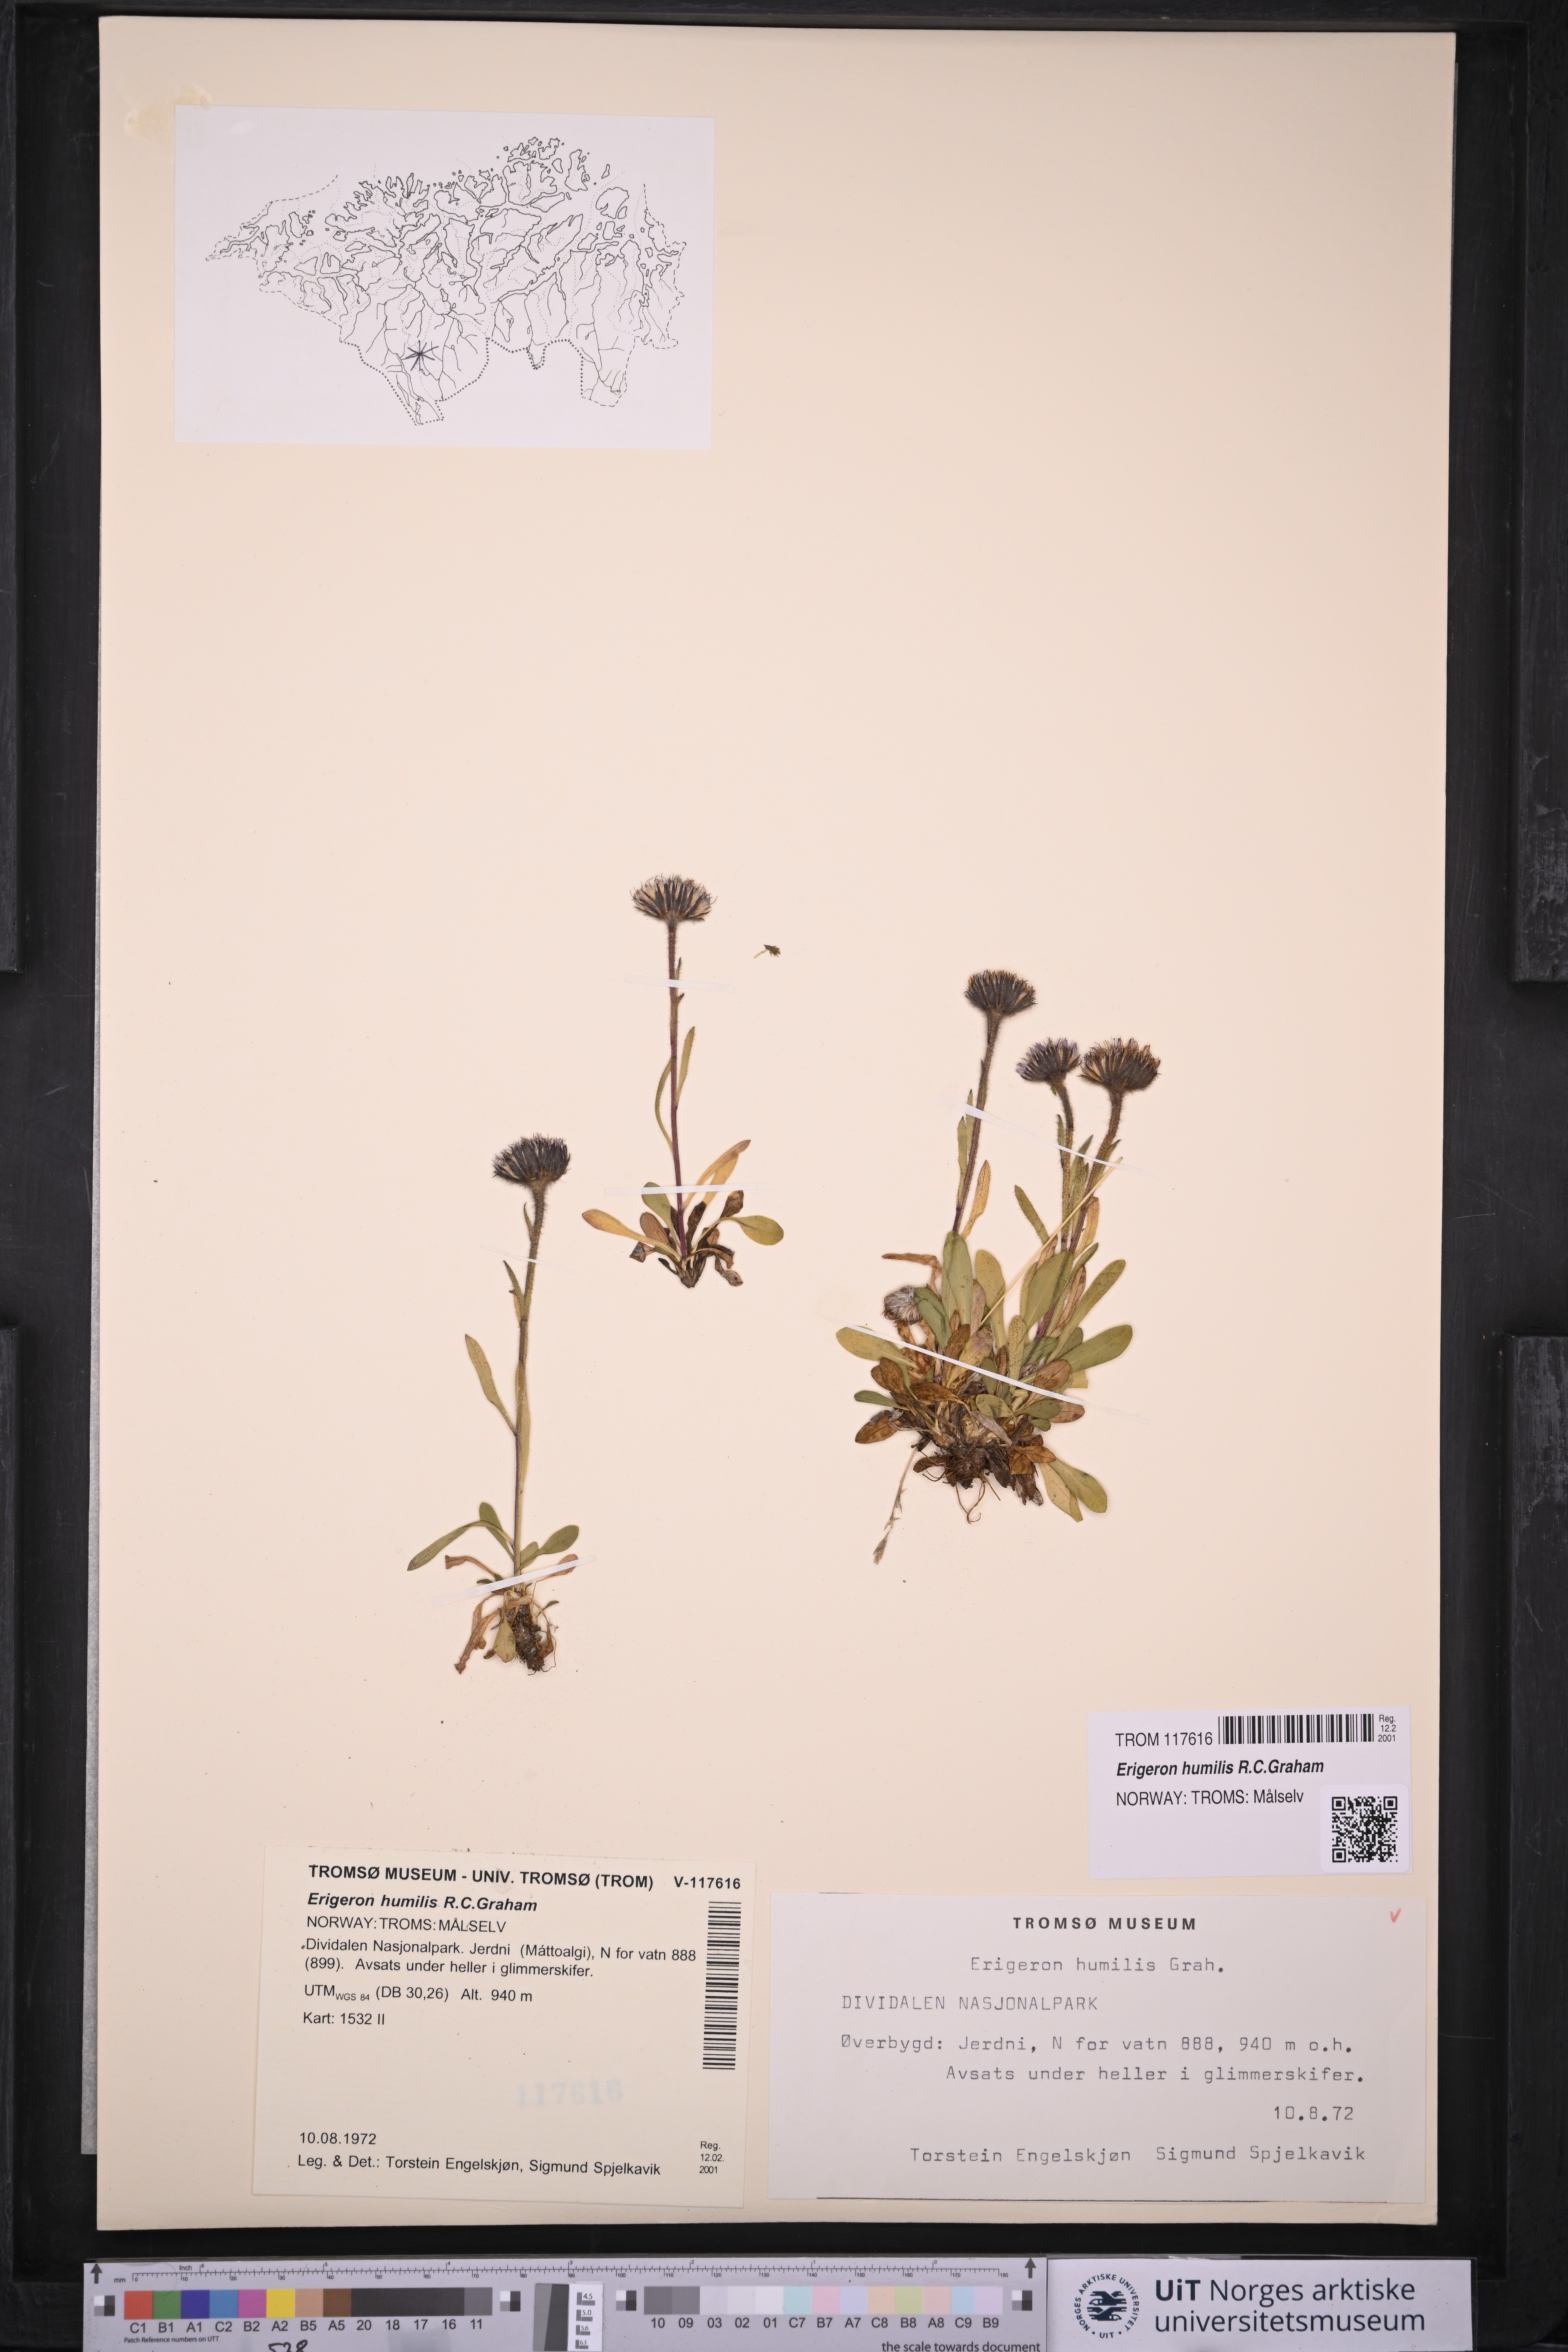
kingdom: Plantae
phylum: Tracheophyta
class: Magnoliopsida
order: Asterales
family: Asteraceae
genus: Erigeron
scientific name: Erigeron humilis
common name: Arctic-alpine fleabane
